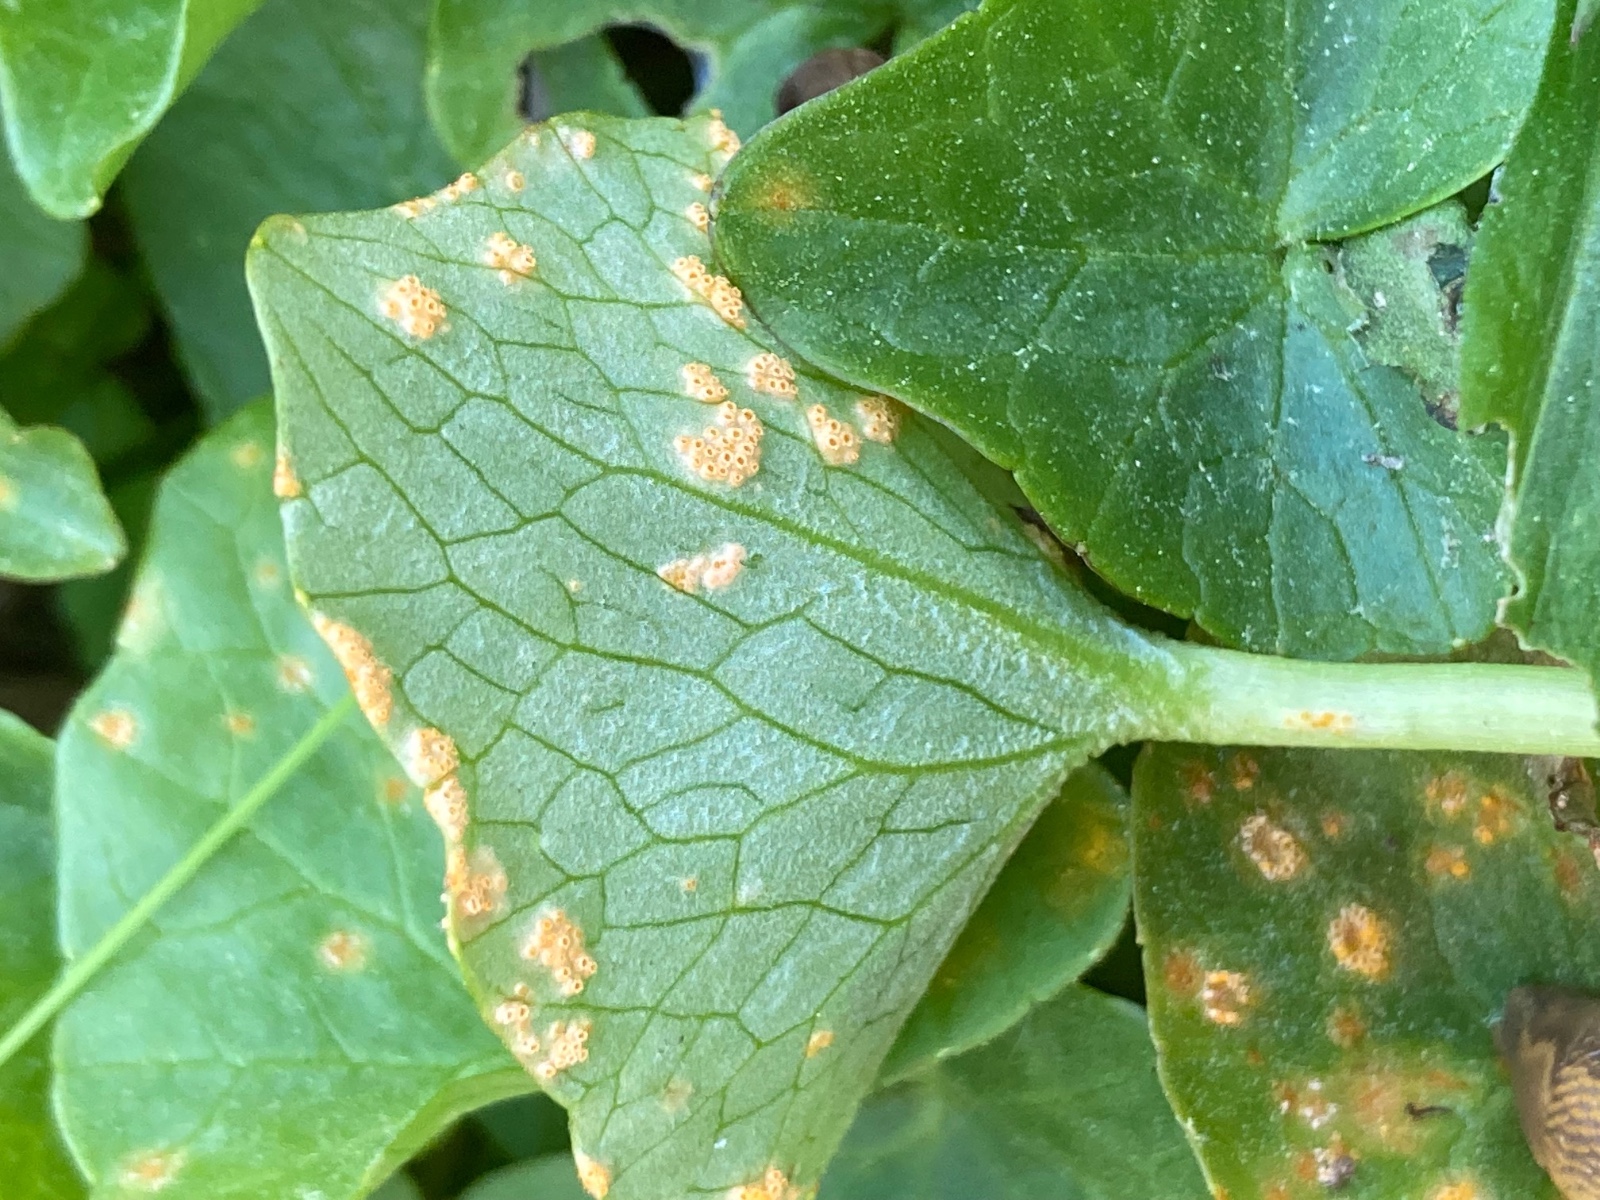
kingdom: Fungi
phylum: Basidiomycota
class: Pucciniomycetes
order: Pucciniales
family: Pucciniaceae
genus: Uromyces
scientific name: Uromyces dactylidis
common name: ranunkel-encellerust
